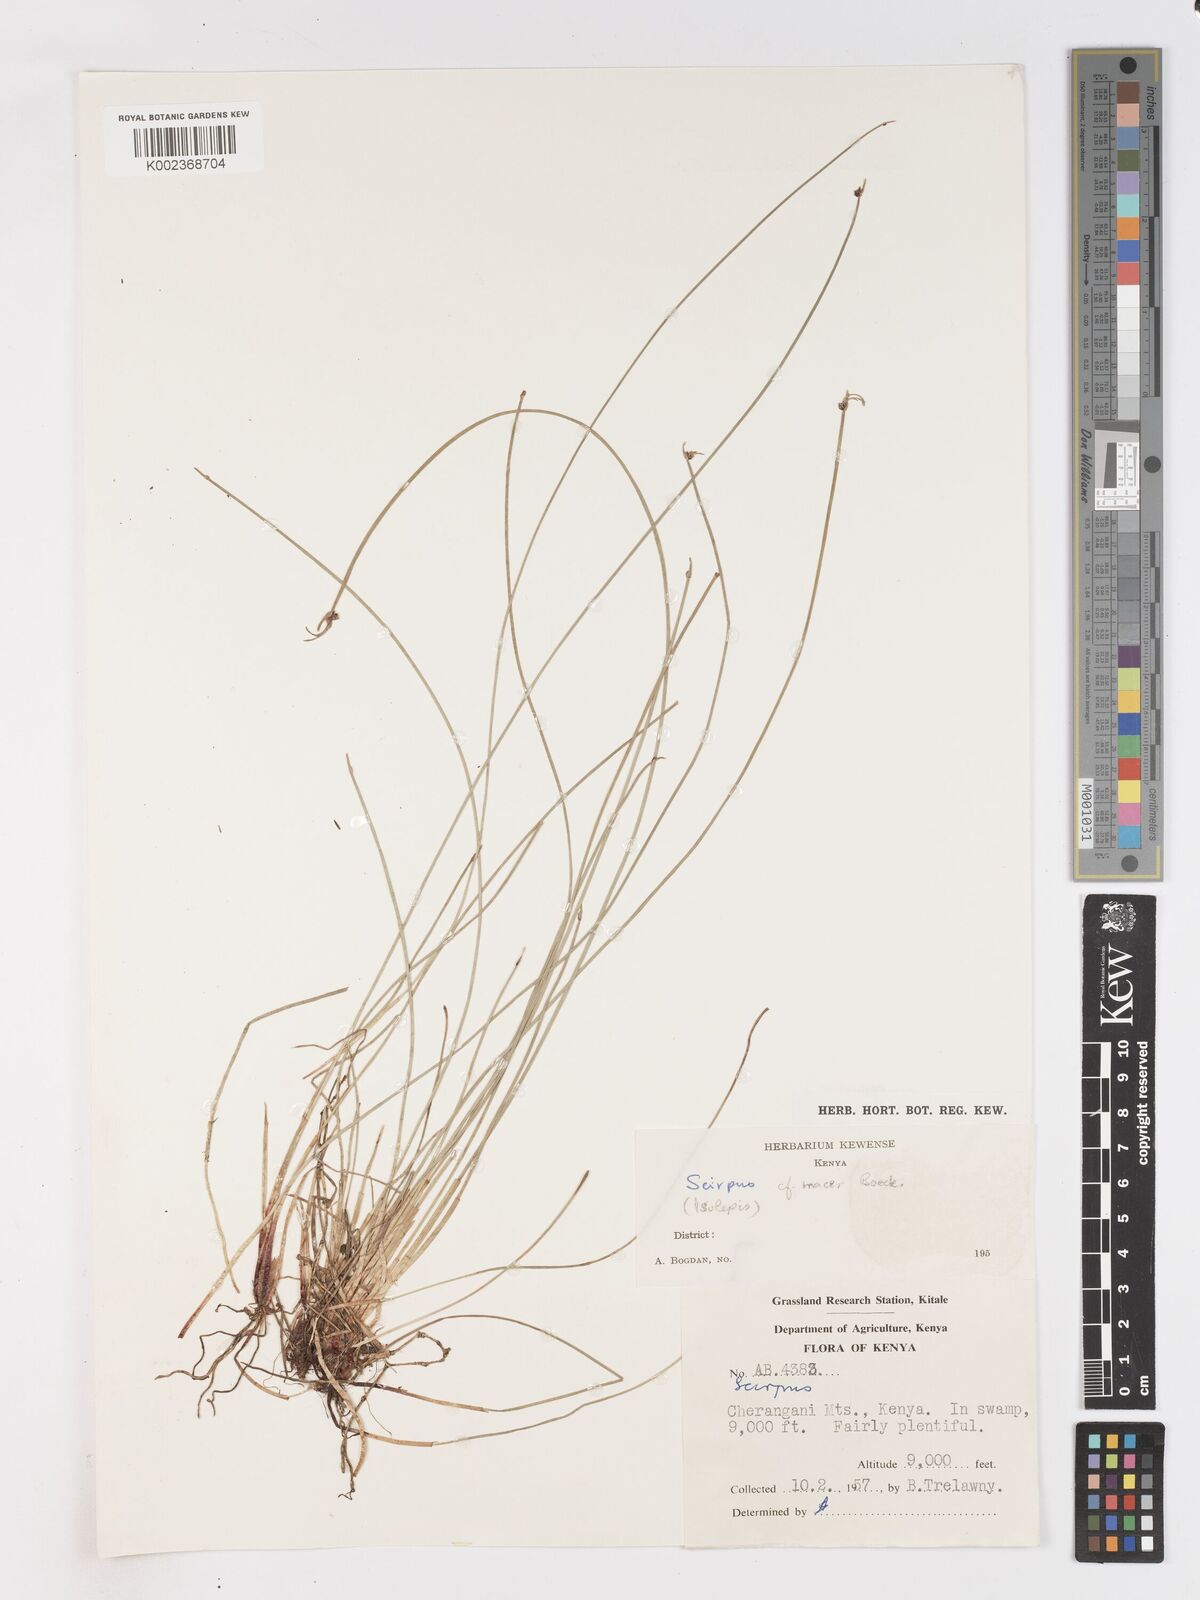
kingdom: Plantae
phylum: Tracheophyta
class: Liliopsida
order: Poales
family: Cyperaceae
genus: Isolepis
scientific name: Isolepis costata
